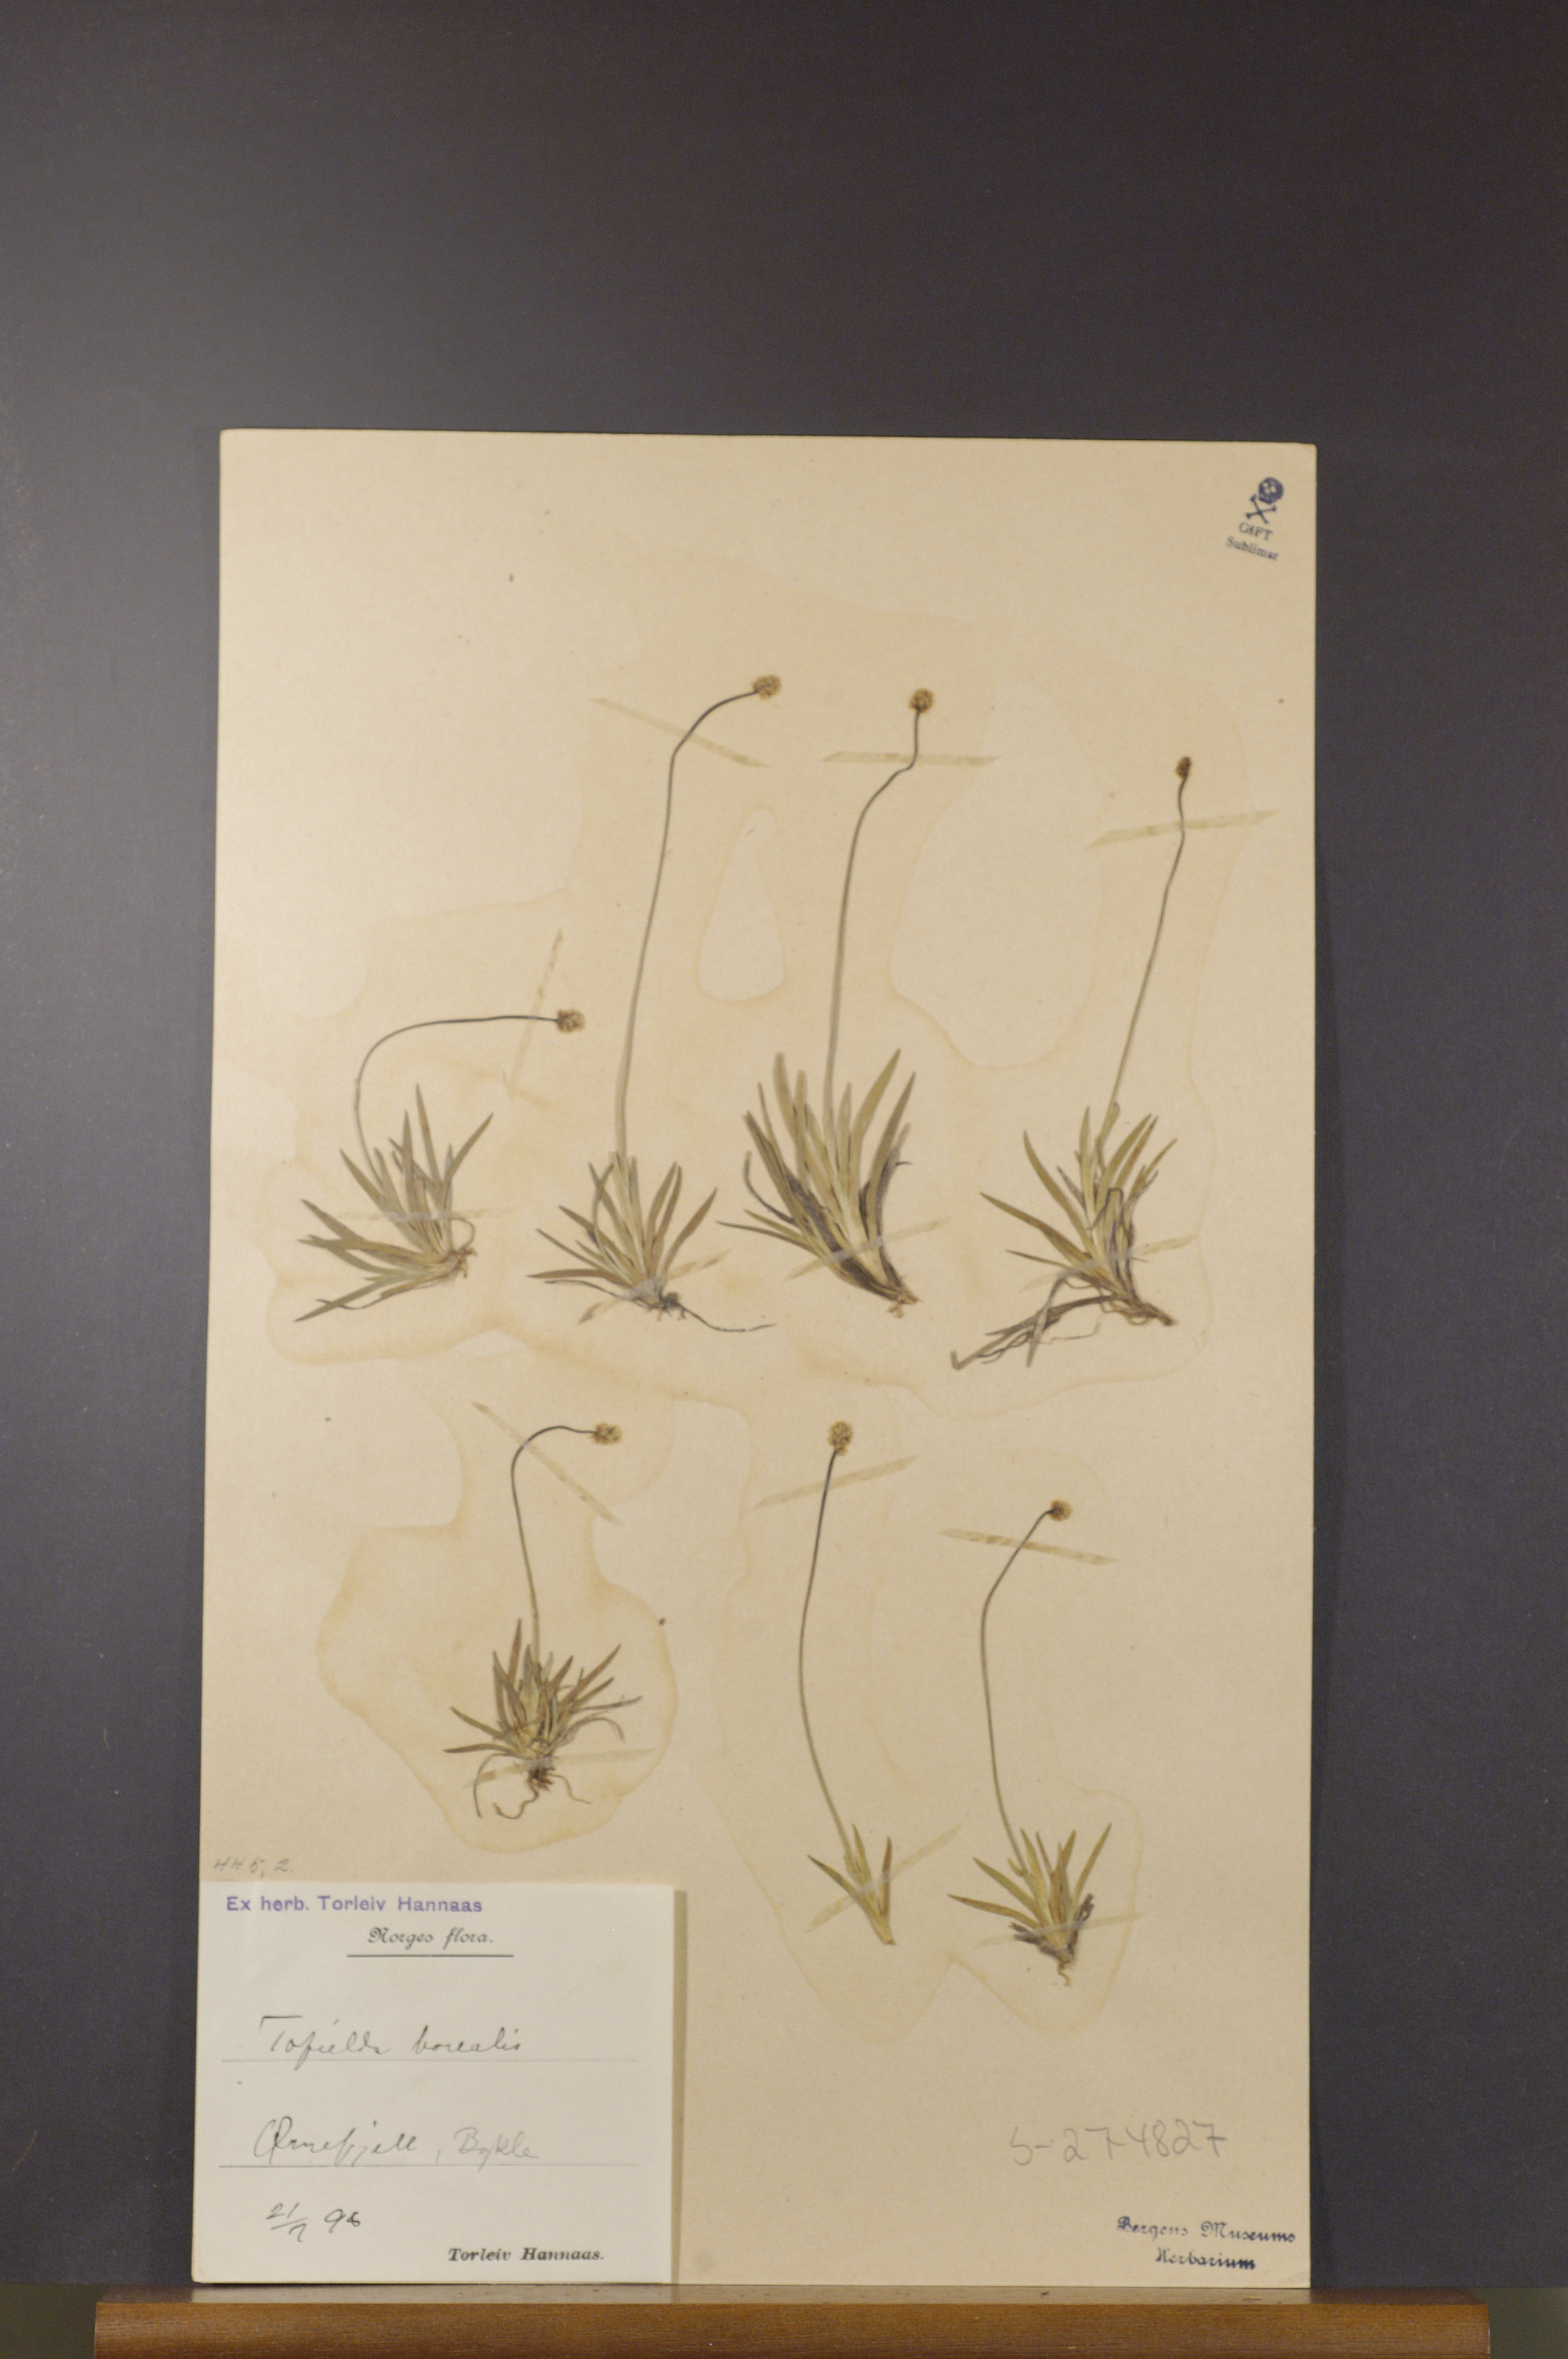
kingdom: Plantae
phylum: Tracheophyta
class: Liliopsida
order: Alismatales
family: Tofieldiaceae
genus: Tofieldia
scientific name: Tofieldia pusilla
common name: Scottish false asphodel
